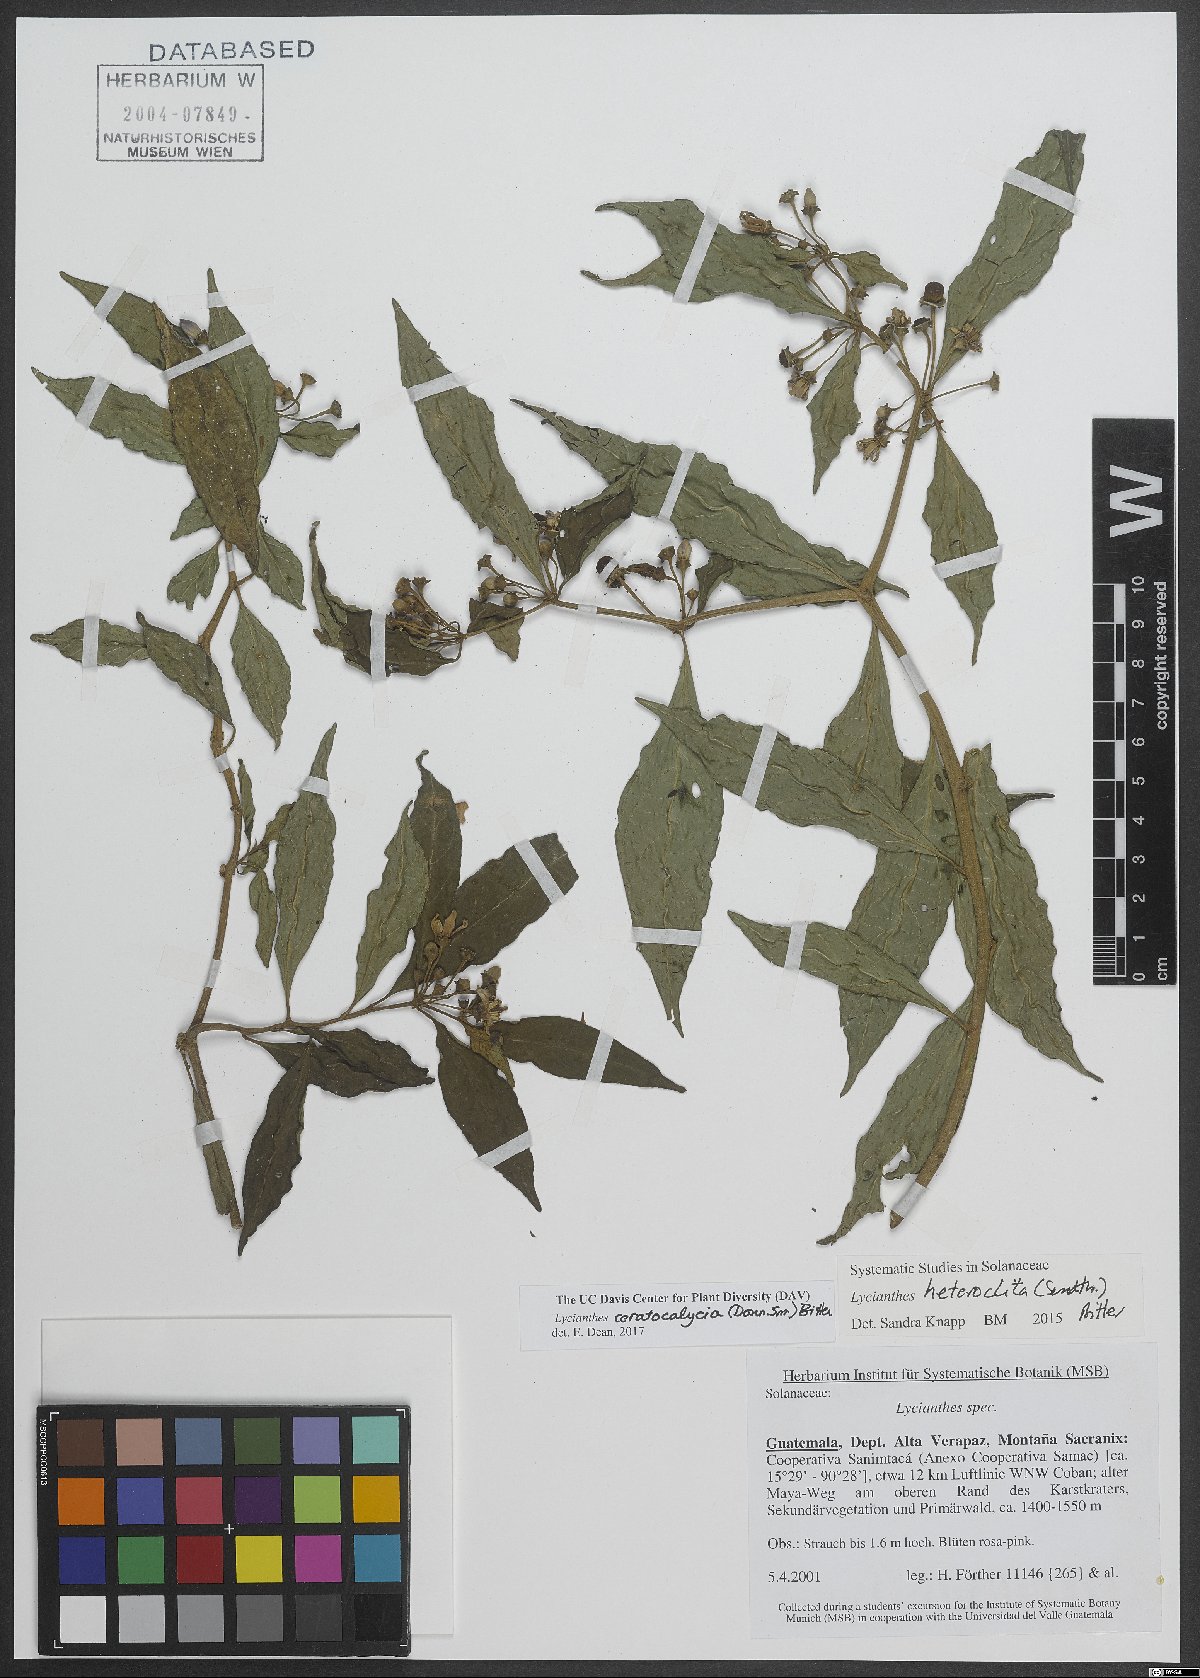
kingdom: Plantae
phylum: Tracheophyta
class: Magnoliopsida
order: Solanales
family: Solanaceae
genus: Lycianthes
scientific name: Lycianthes ceratocalycia
